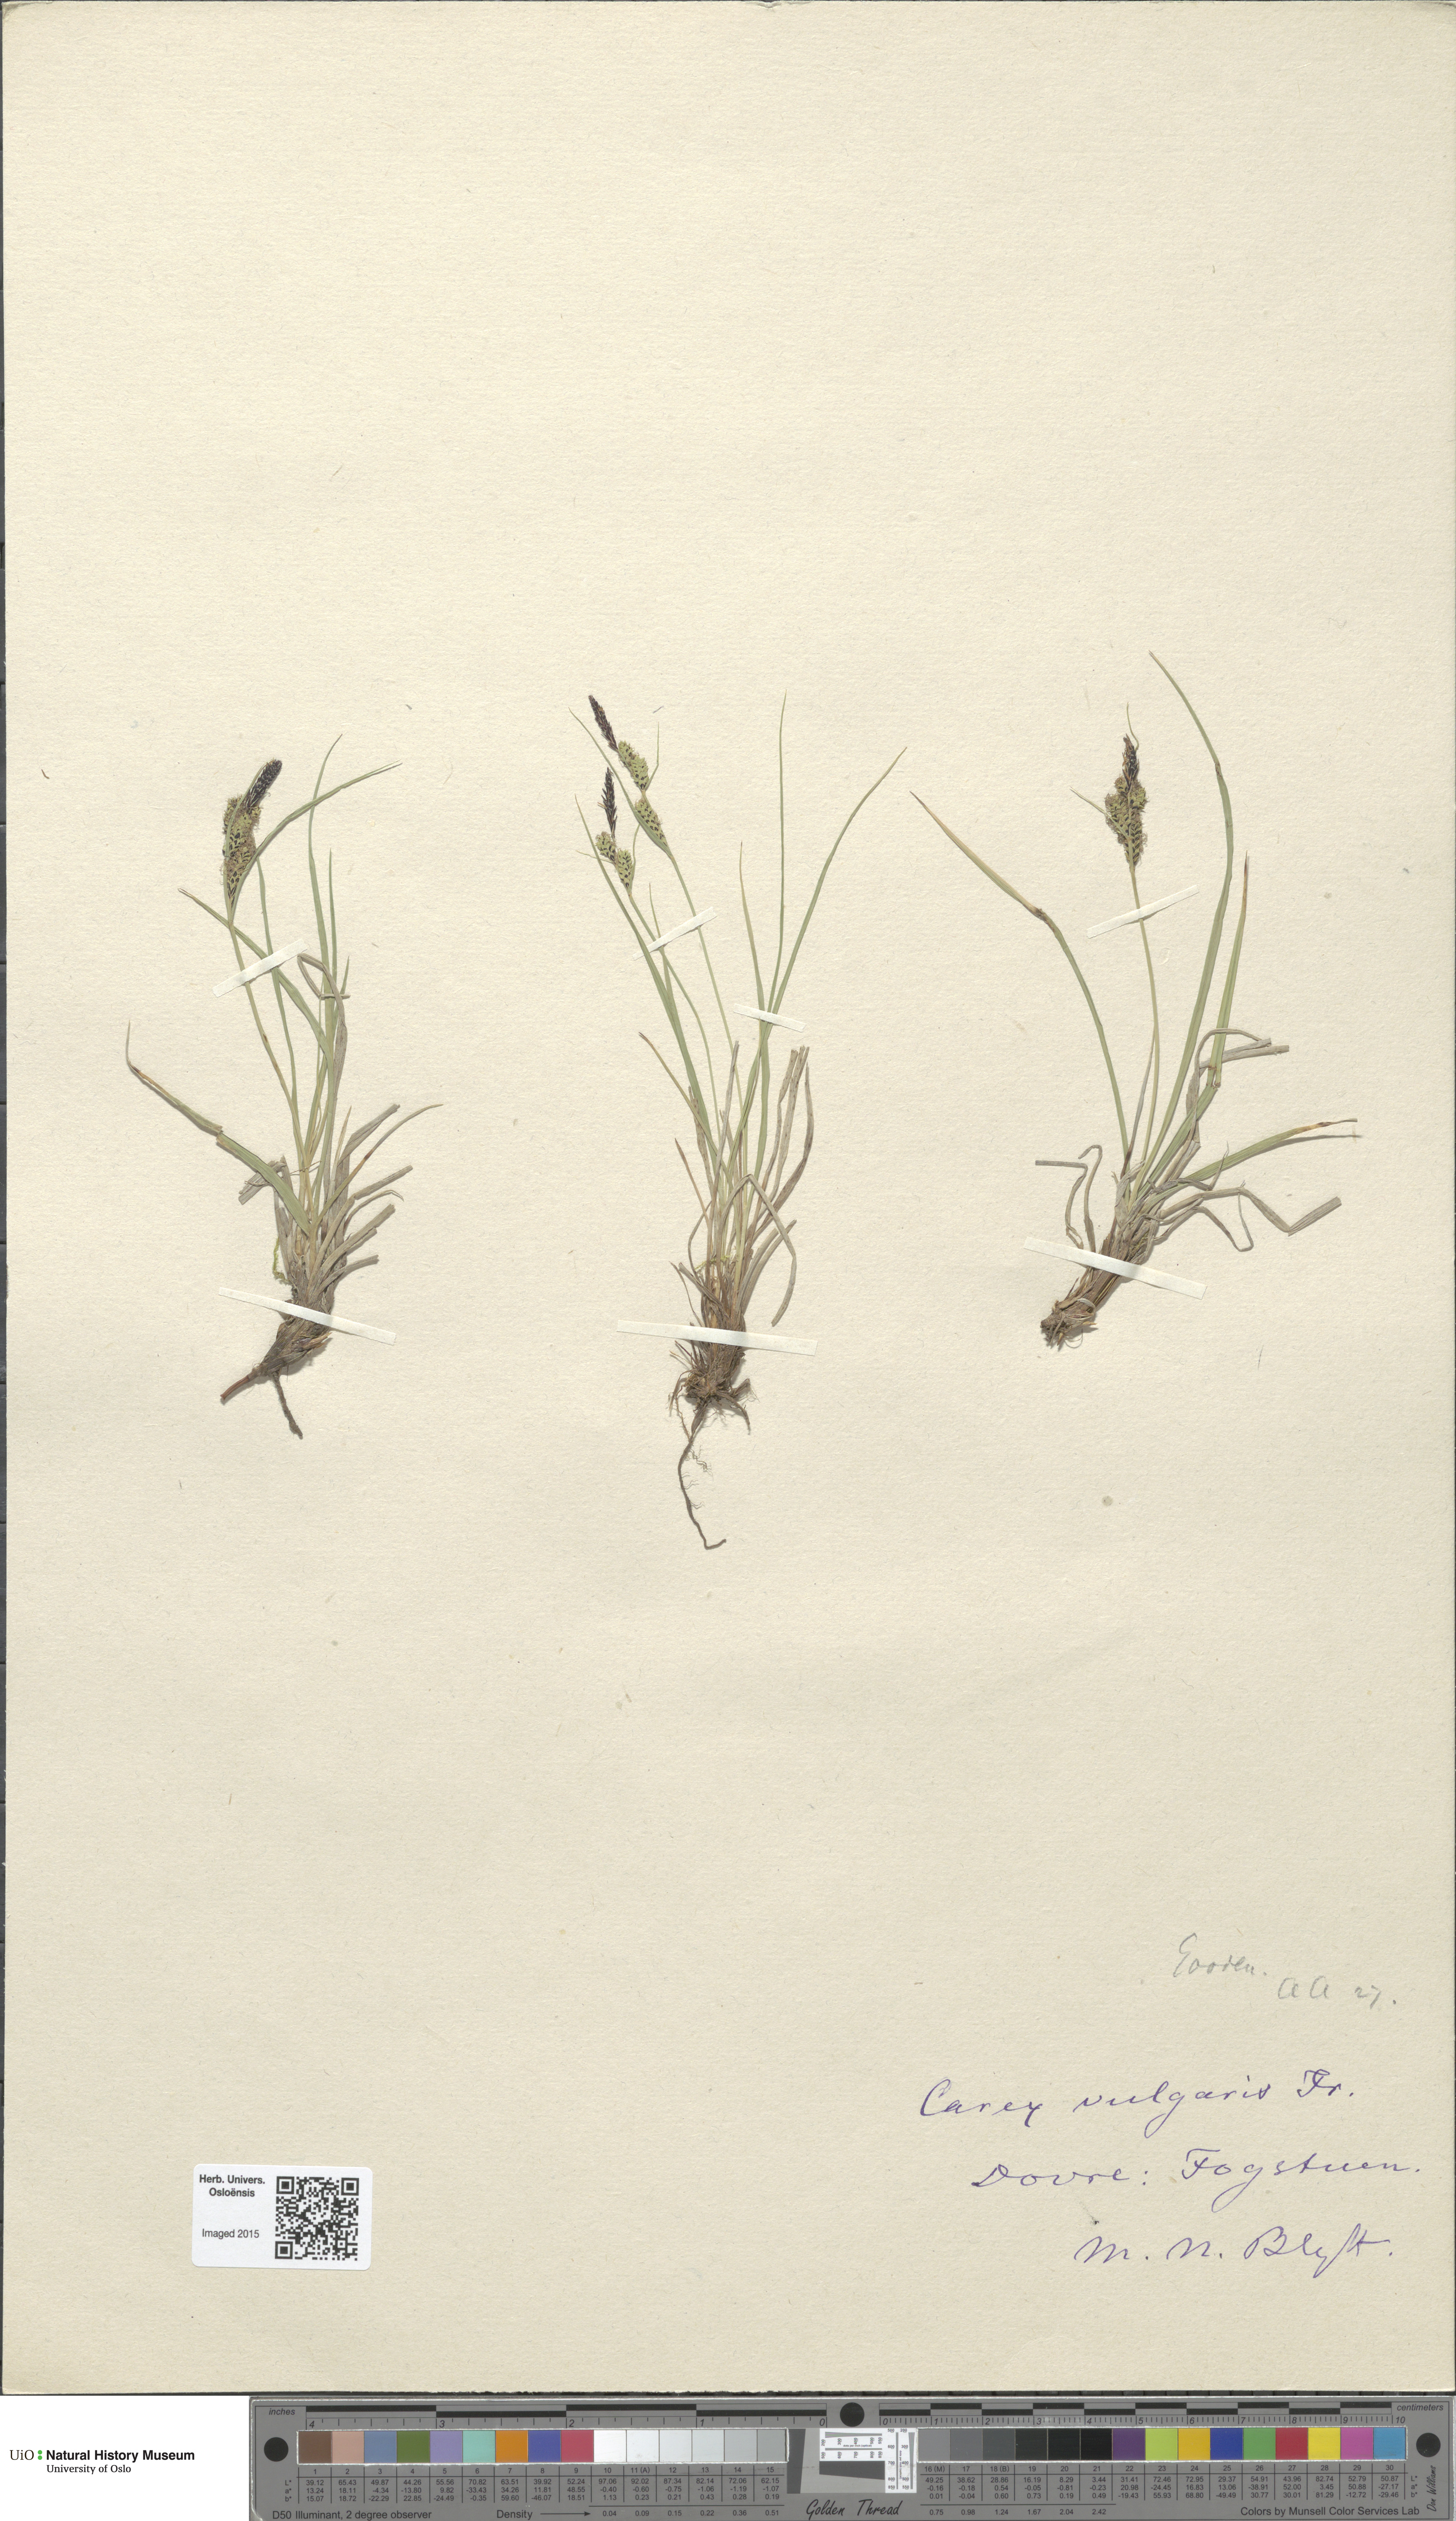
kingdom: Plantae
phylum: Tracheophyta
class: Liliopsida
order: Poales
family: Cyperaceae
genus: Carex
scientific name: Carex nigra
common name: Common sedge
